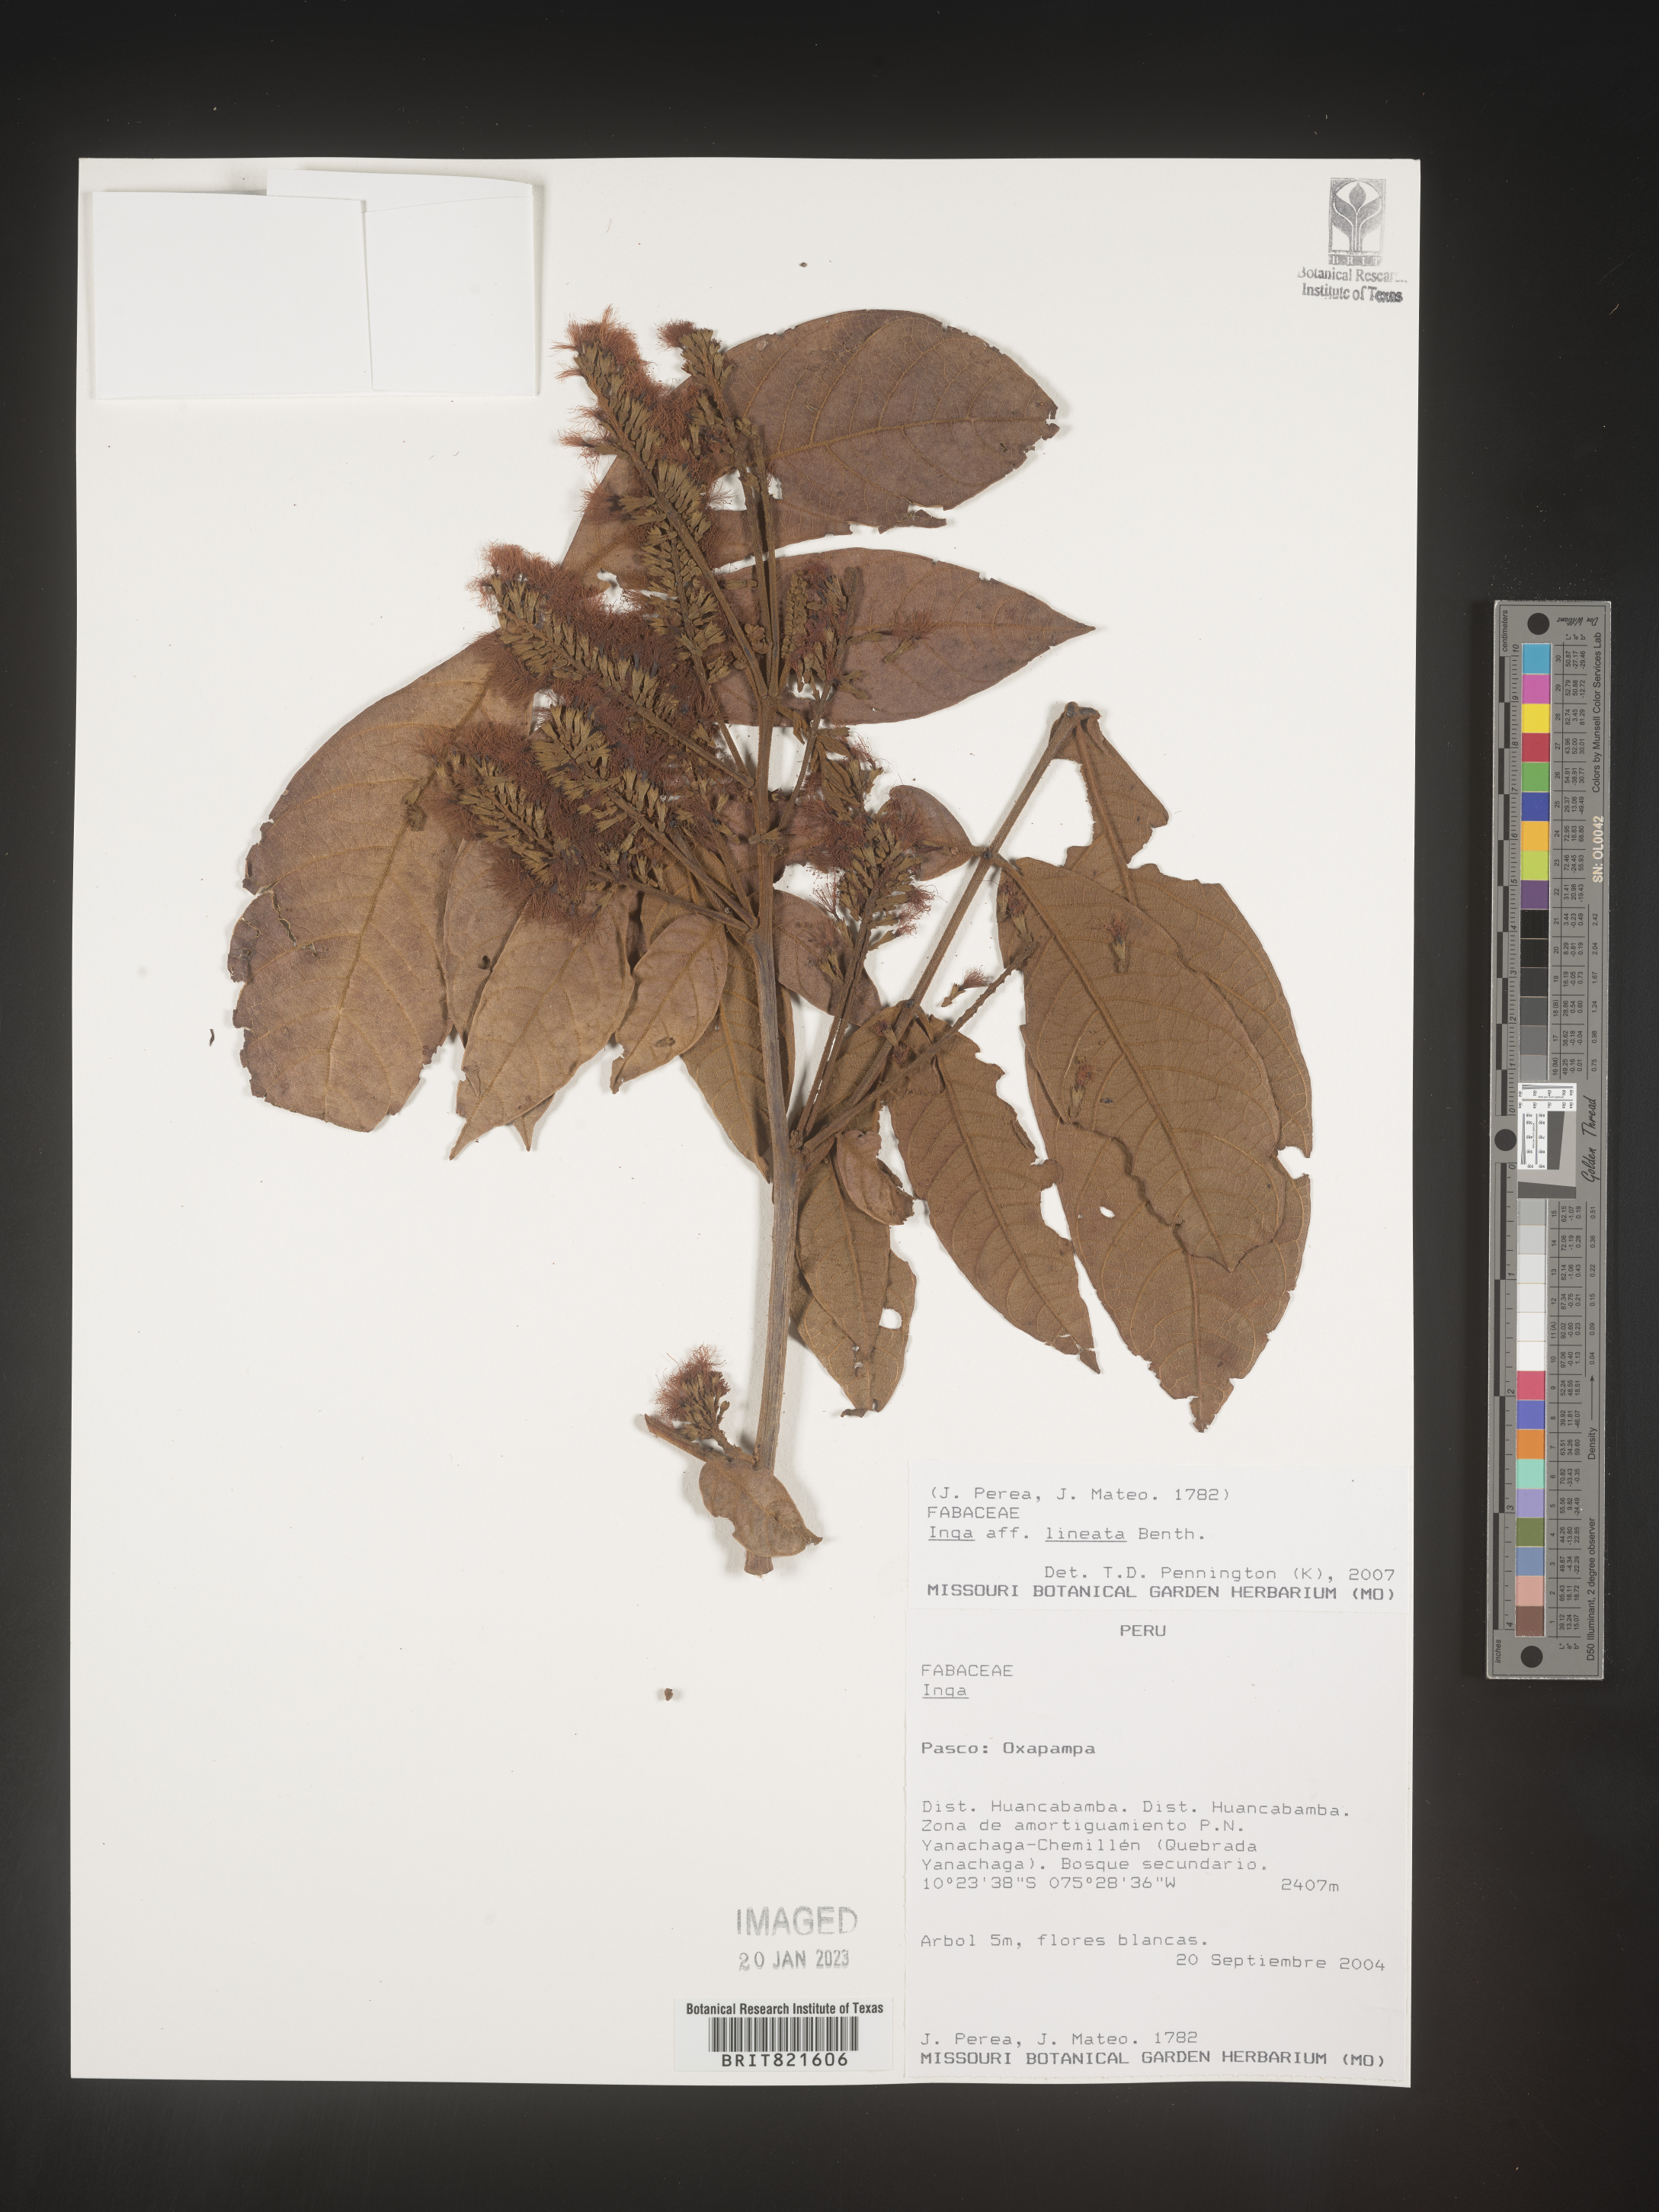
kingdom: Plantae
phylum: Tracheophyta
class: Magnoliopsida
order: Fabales
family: Fabaceae
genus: Inga
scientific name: Inga
